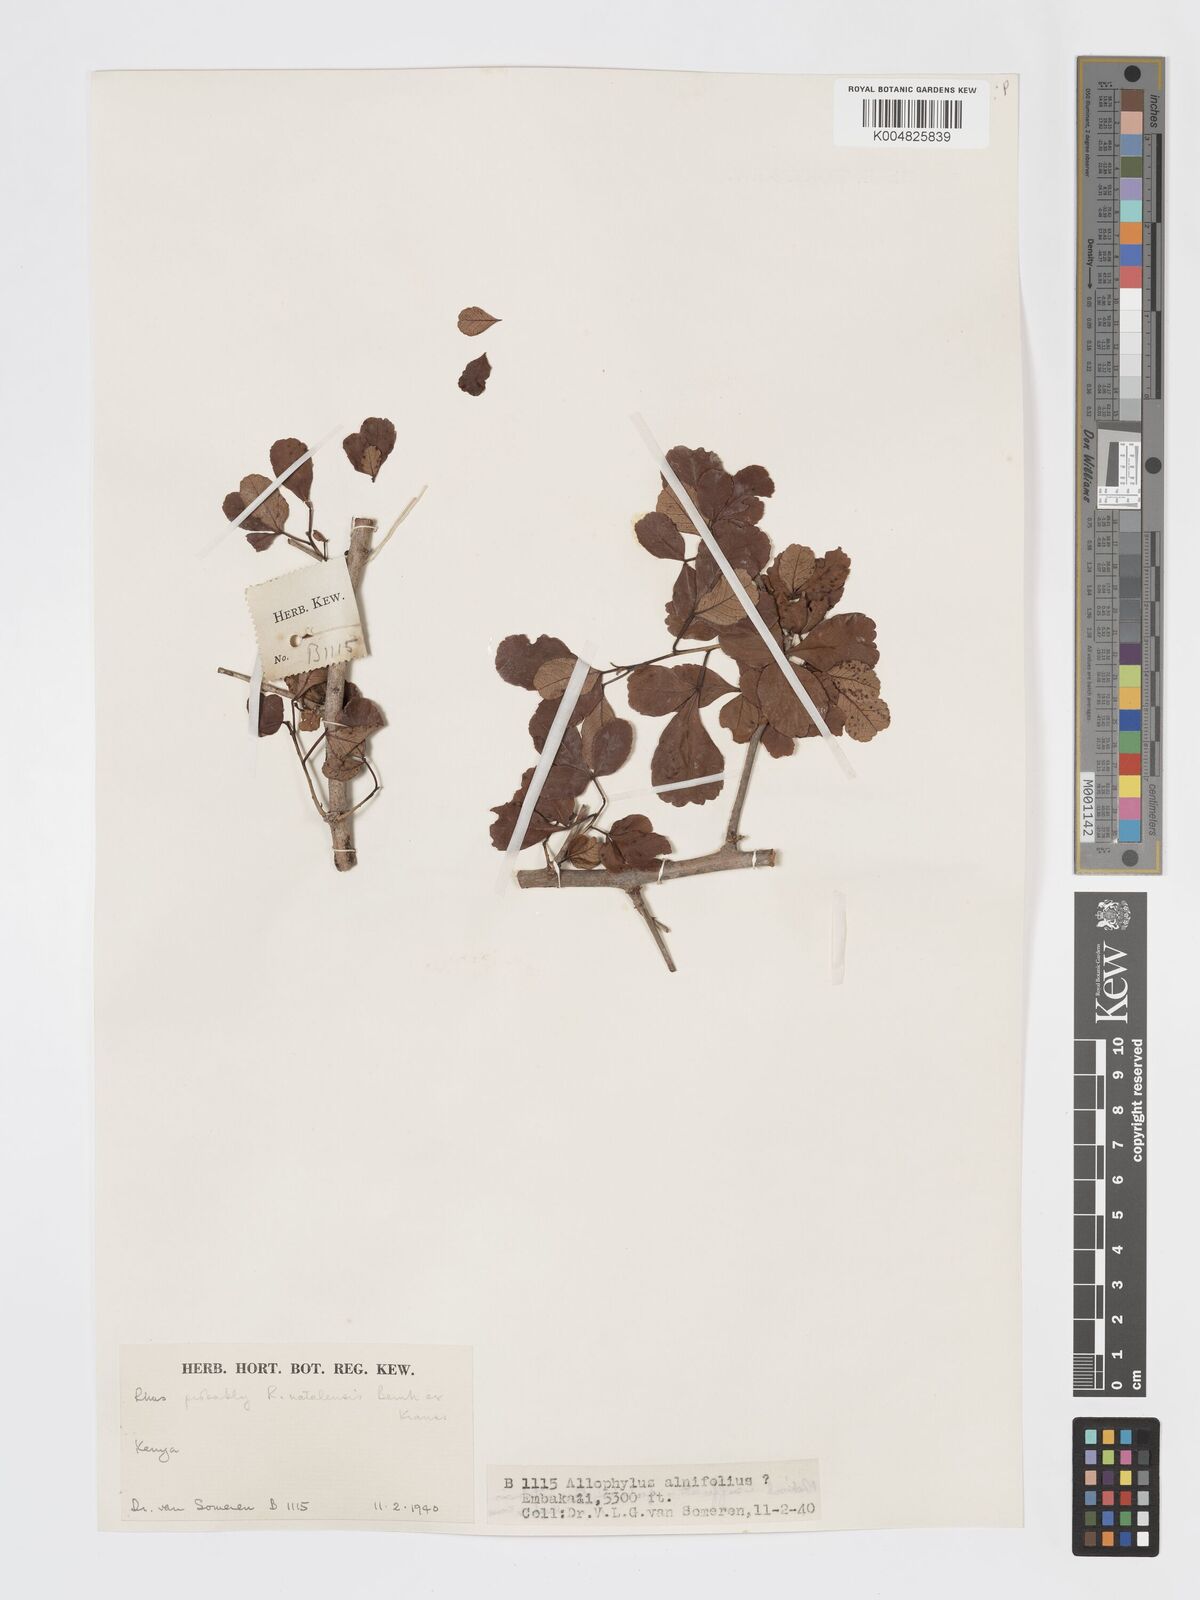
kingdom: Plantae
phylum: Tracheophyta
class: Magnoliopsida
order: Sapindales
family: Anacardiaceae
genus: Searsia
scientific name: Searsia natalensis
